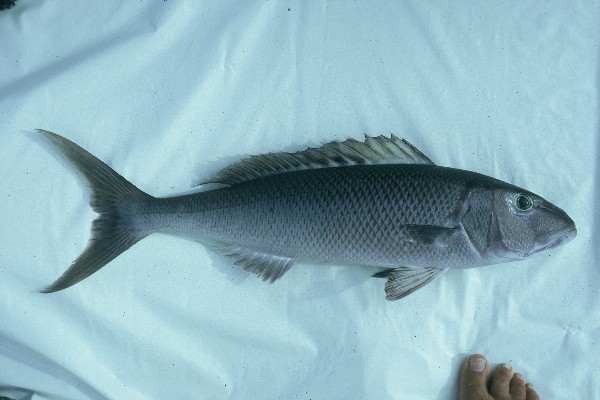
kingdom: Animalia
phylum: Chordata
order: Perciformes
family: Lutjanidae
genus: Aprion
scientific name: Aprion virescens
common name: Green jobfish
